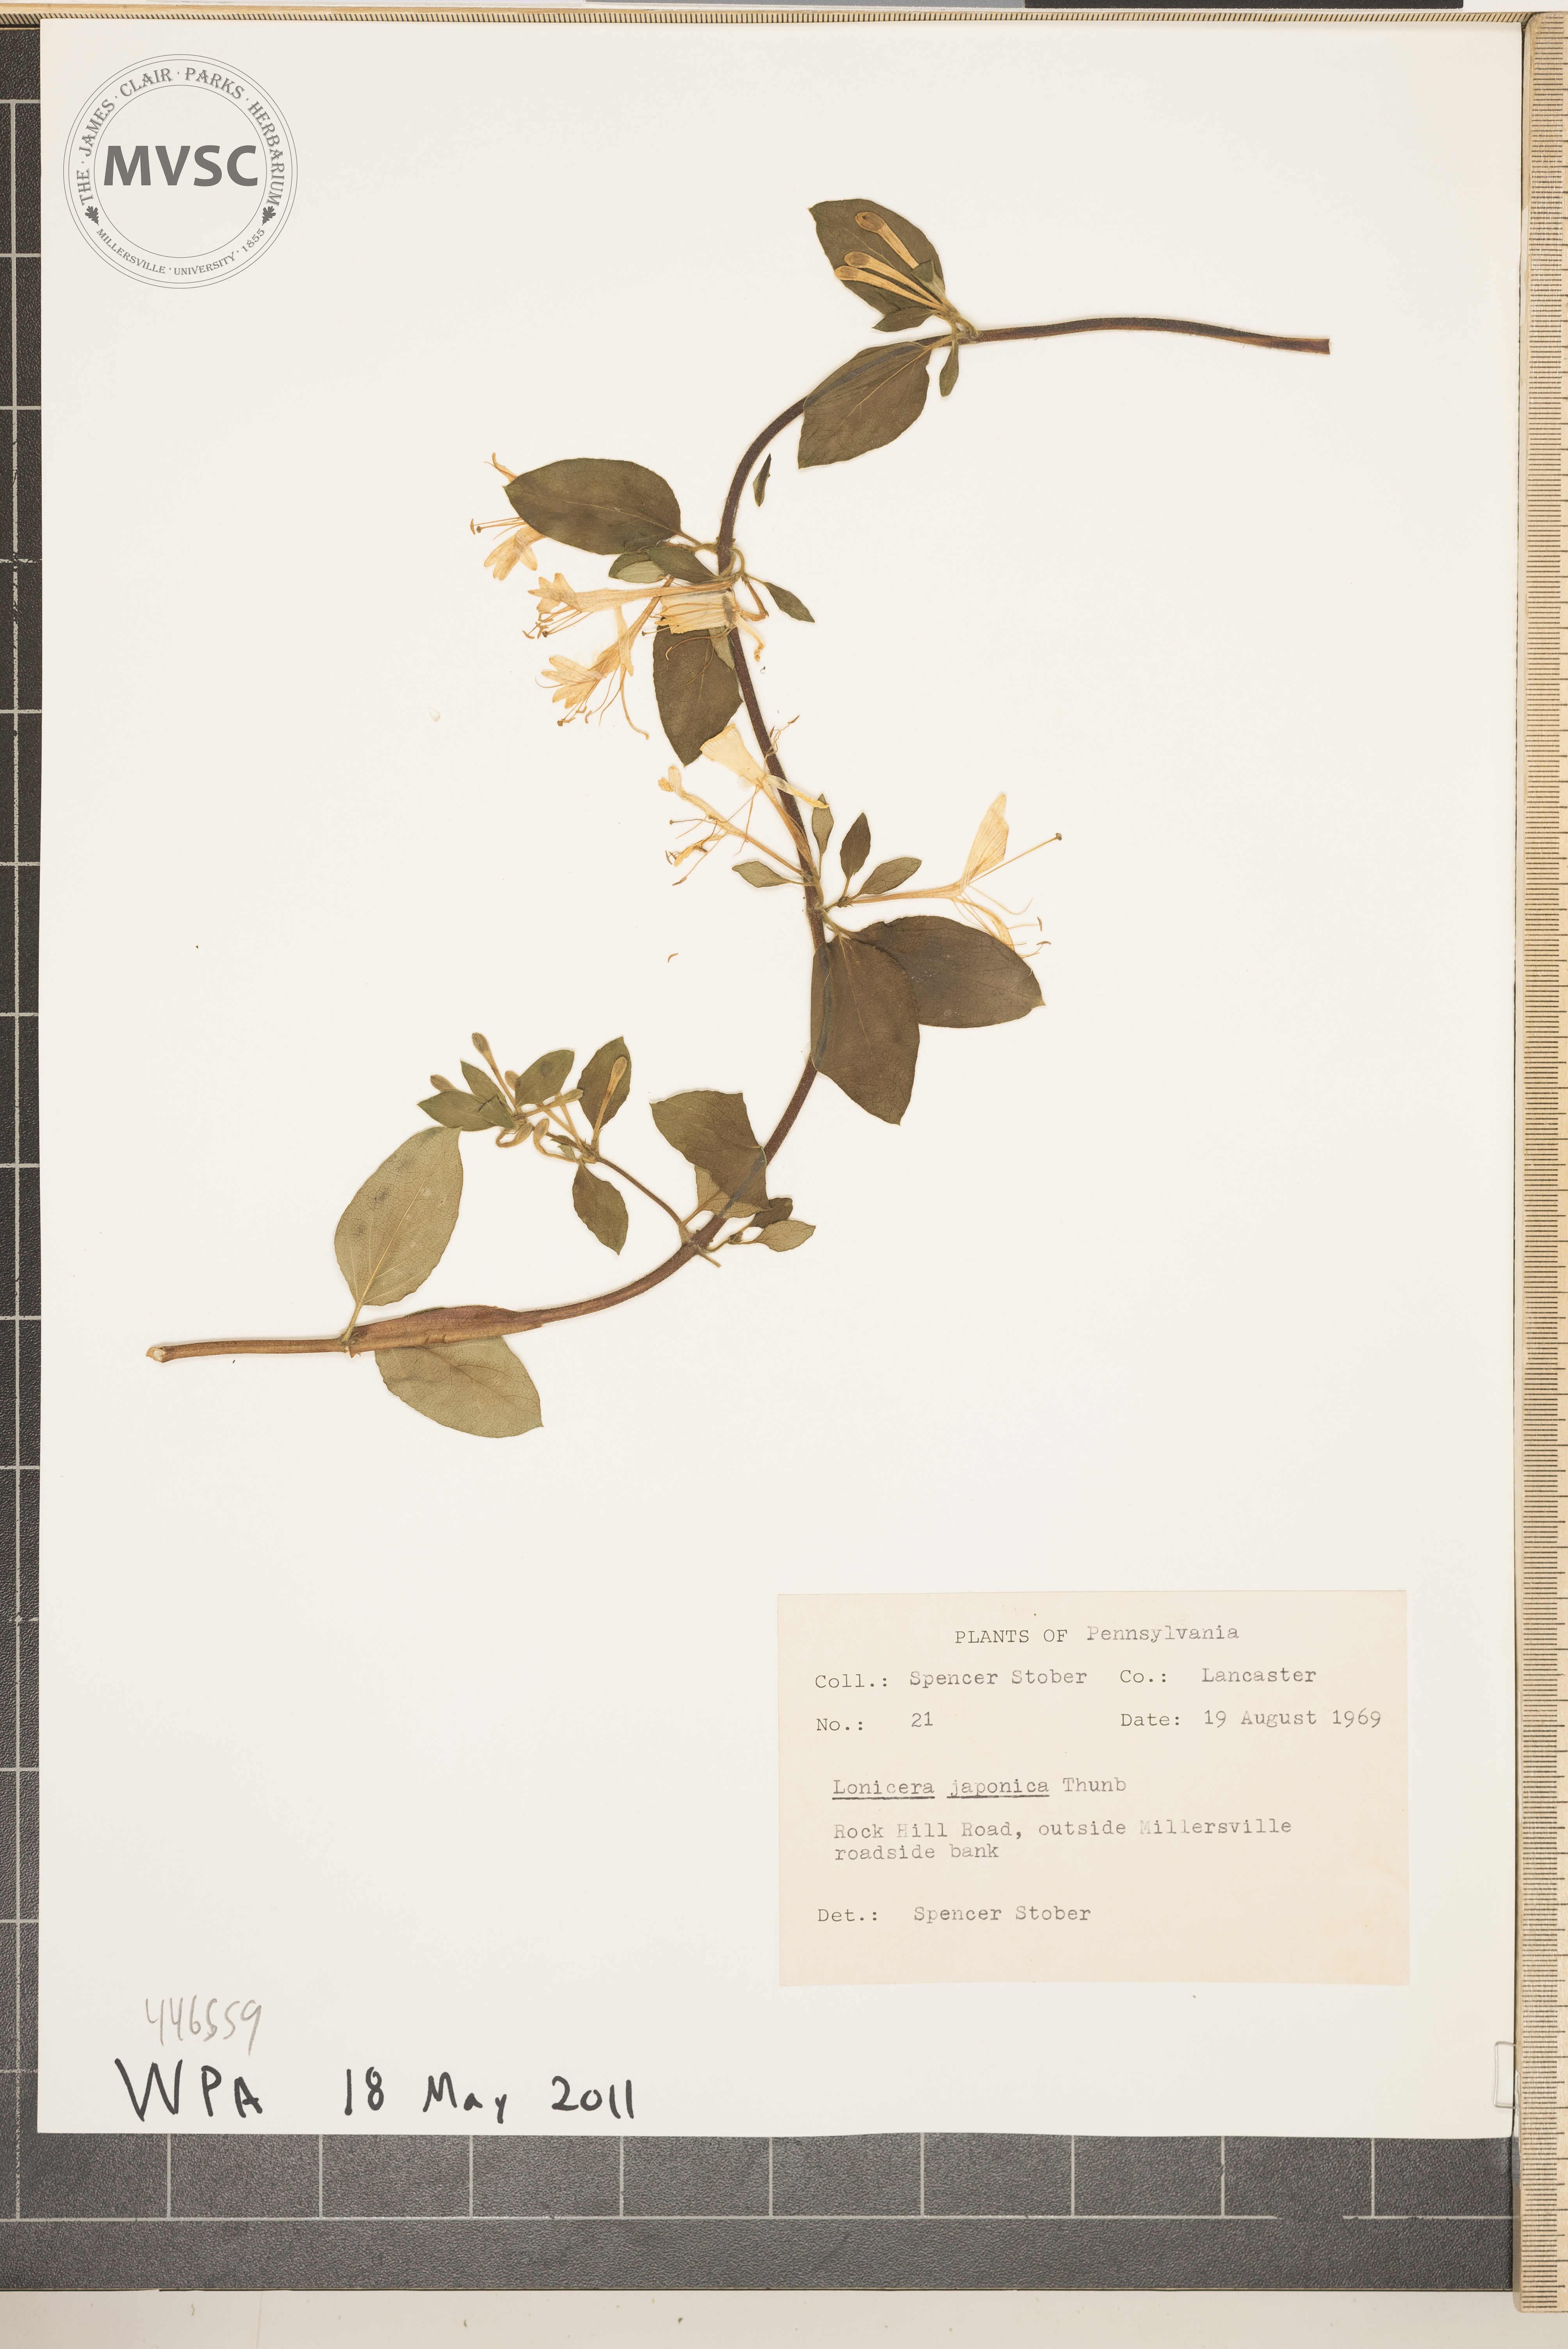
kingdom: Plantae
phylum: Tracheophyta
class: Magnoliopsida
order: Dipsacales
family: Caprifoliaceae
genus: Lonicera
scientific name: Lonicera japonica
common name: Japanese honeysuckle
